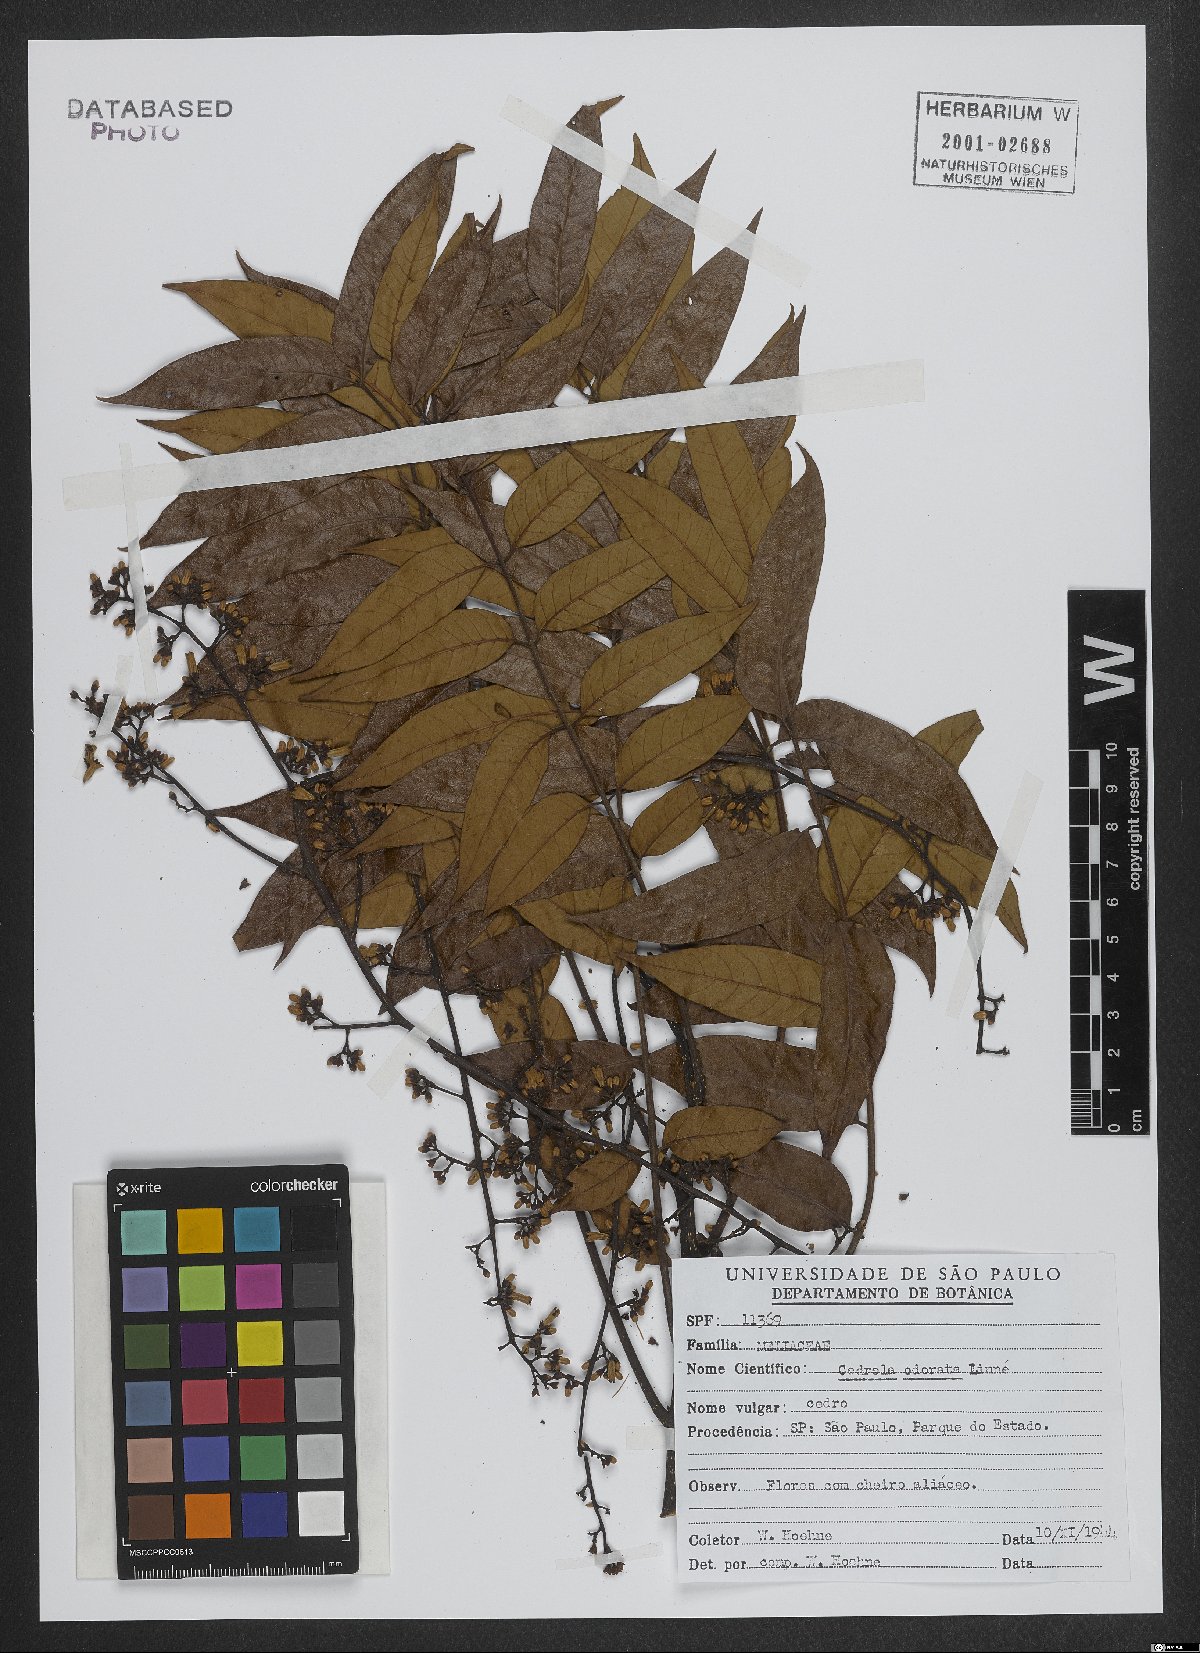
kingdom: Plantae
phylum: Tracheophyta
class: Magnoliopsida
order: Sapindales
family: Meliaceae
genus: Cedrela
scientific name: Cedrela odorata
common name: Red cedar
